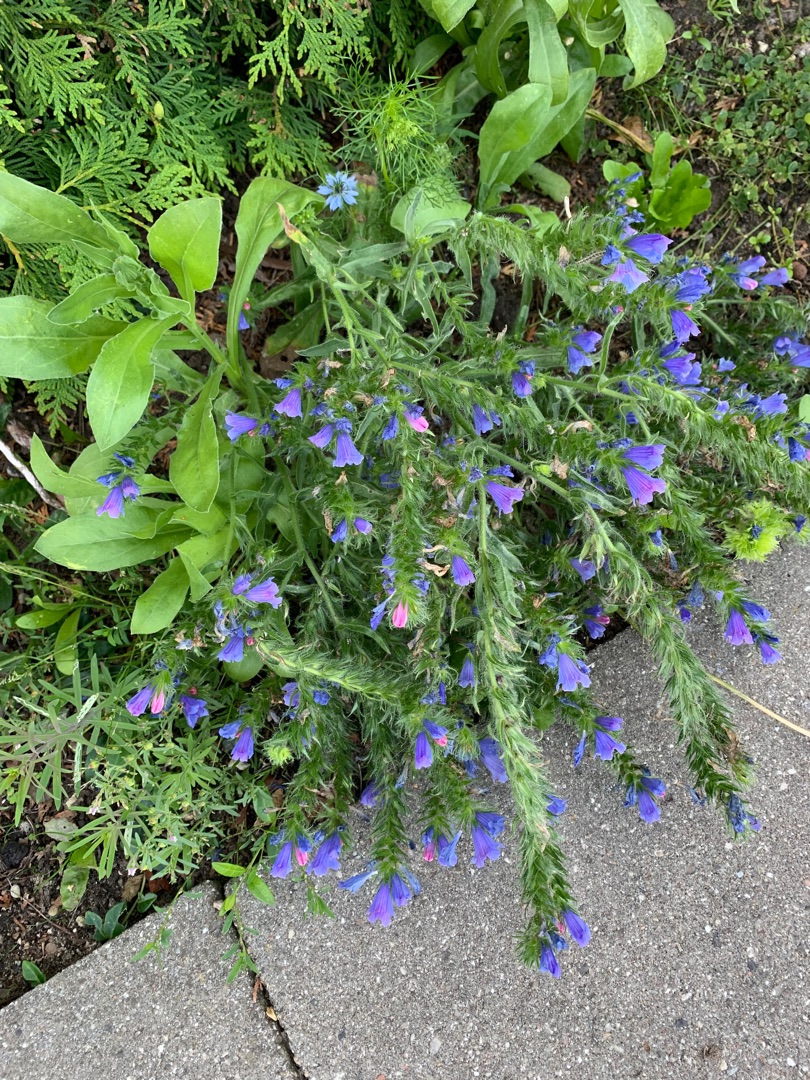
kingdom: Plantae
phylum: Tracheophyta
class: Magnoliopsida
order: Boraginales
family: Boraginaceae
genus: Echium
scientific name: Echium vulgare
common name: Slangehoved
